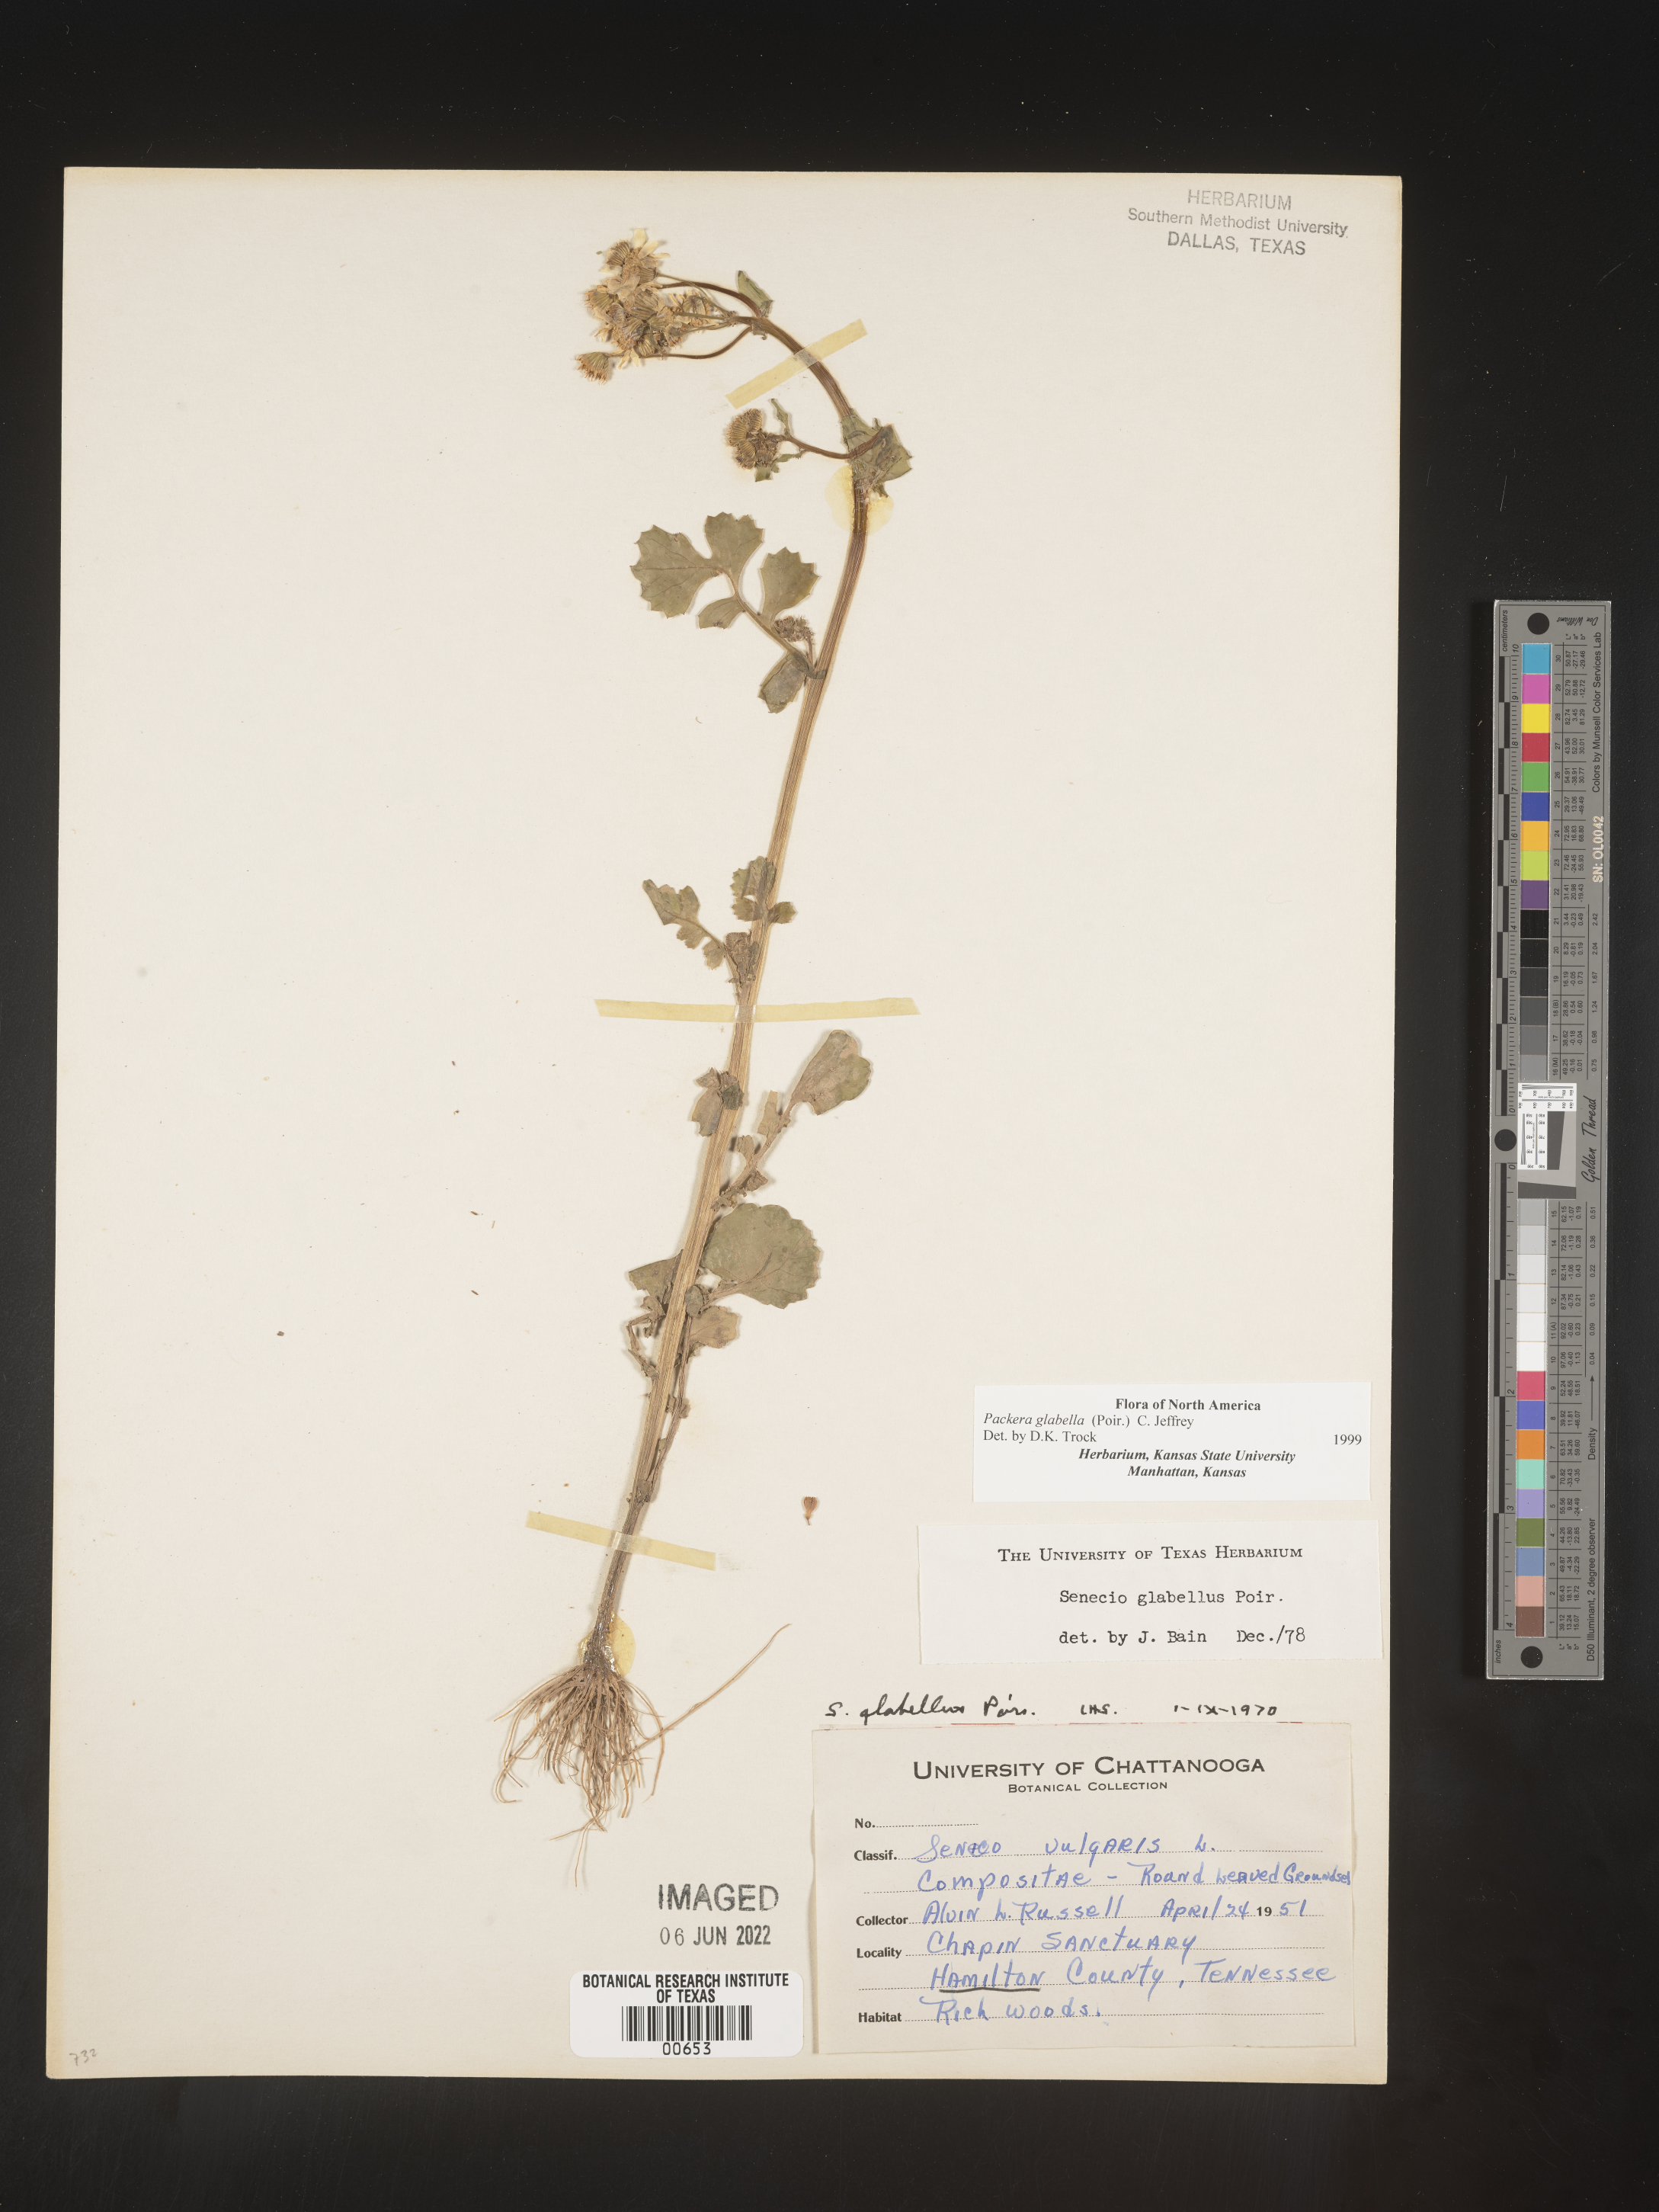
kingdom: Plantae
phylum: Tracheophyta
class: Magnoliopsida
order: Asterales
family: Asteraceae
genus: Packera
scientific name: Packera glabella
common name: Butterweed
